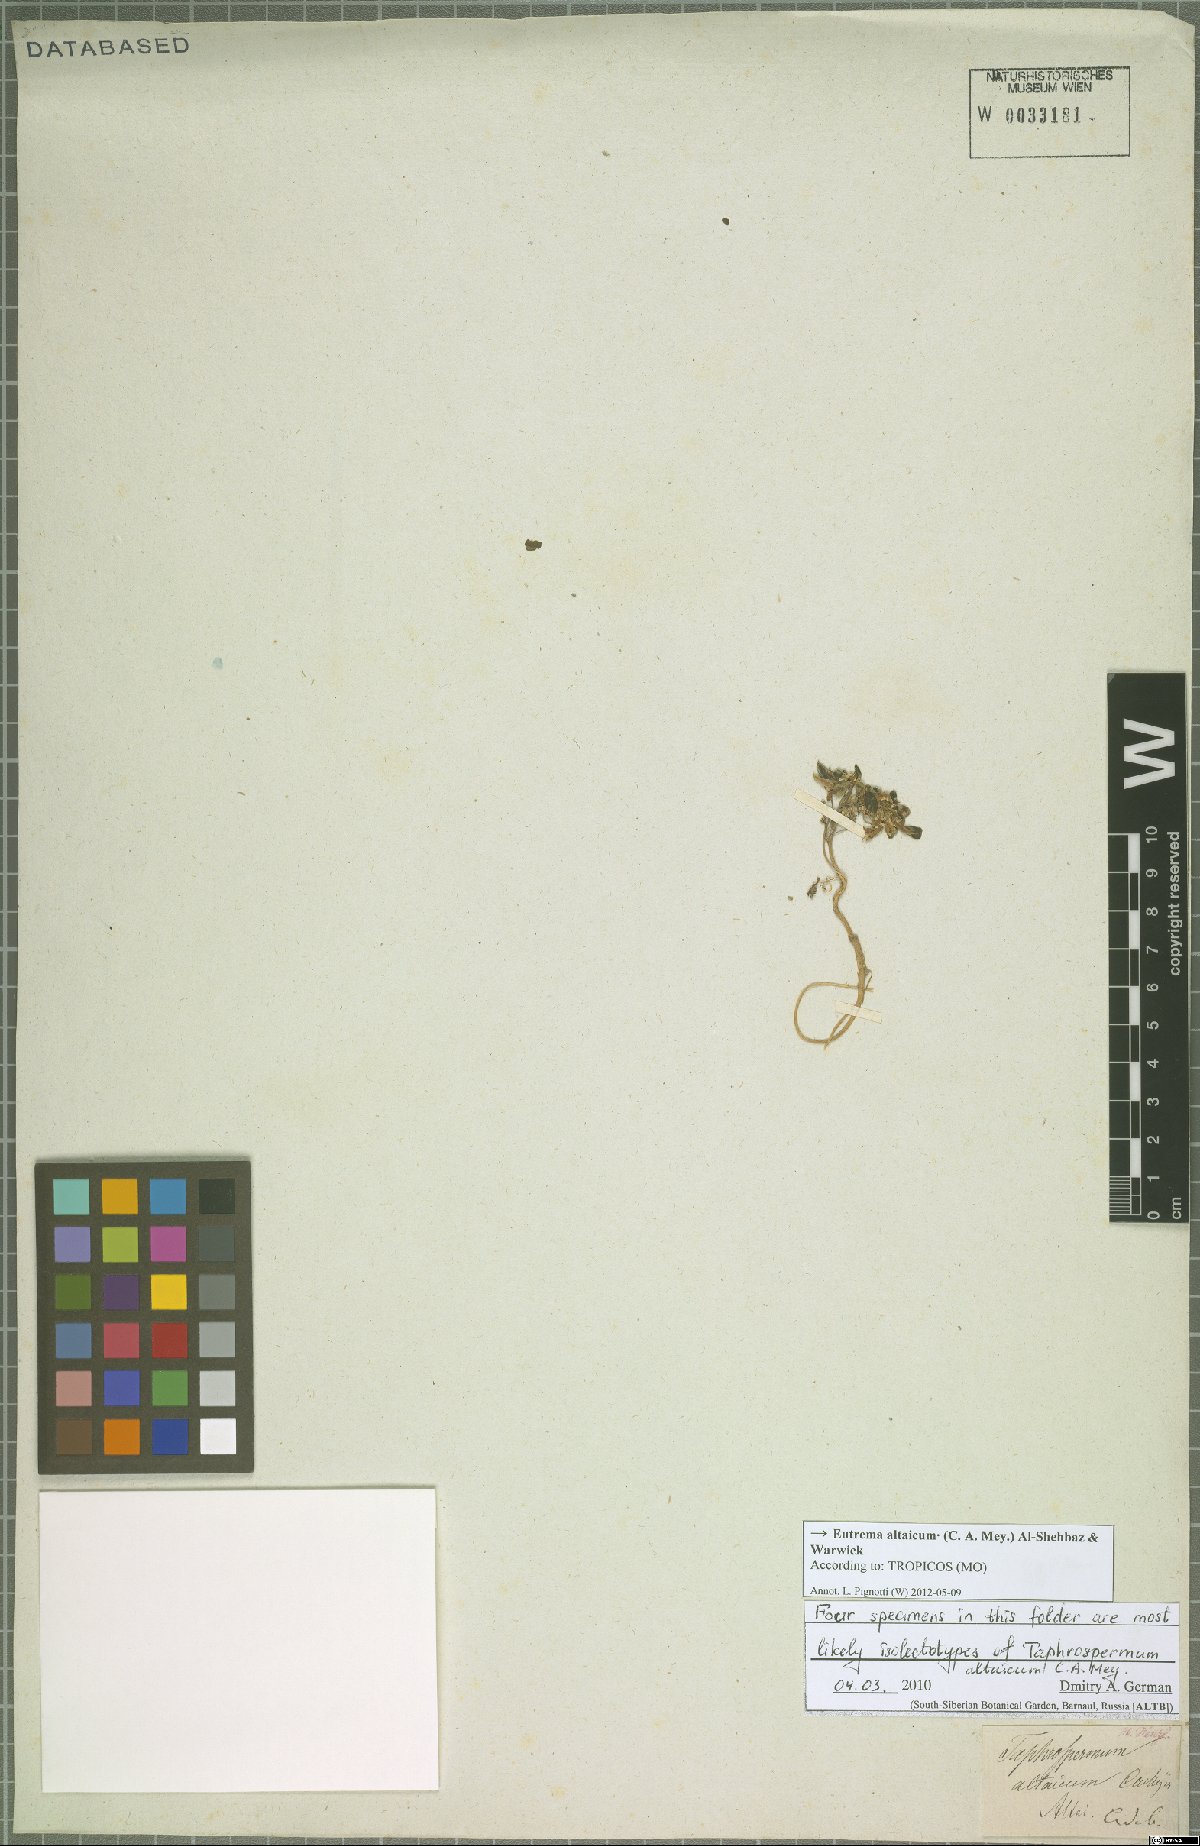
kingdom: Plantae
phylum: Tracheophyta
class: Magnoliopsida
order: Brassicales
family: Brassicaceae
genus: Eutrema
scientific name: Eutrema altaicum
